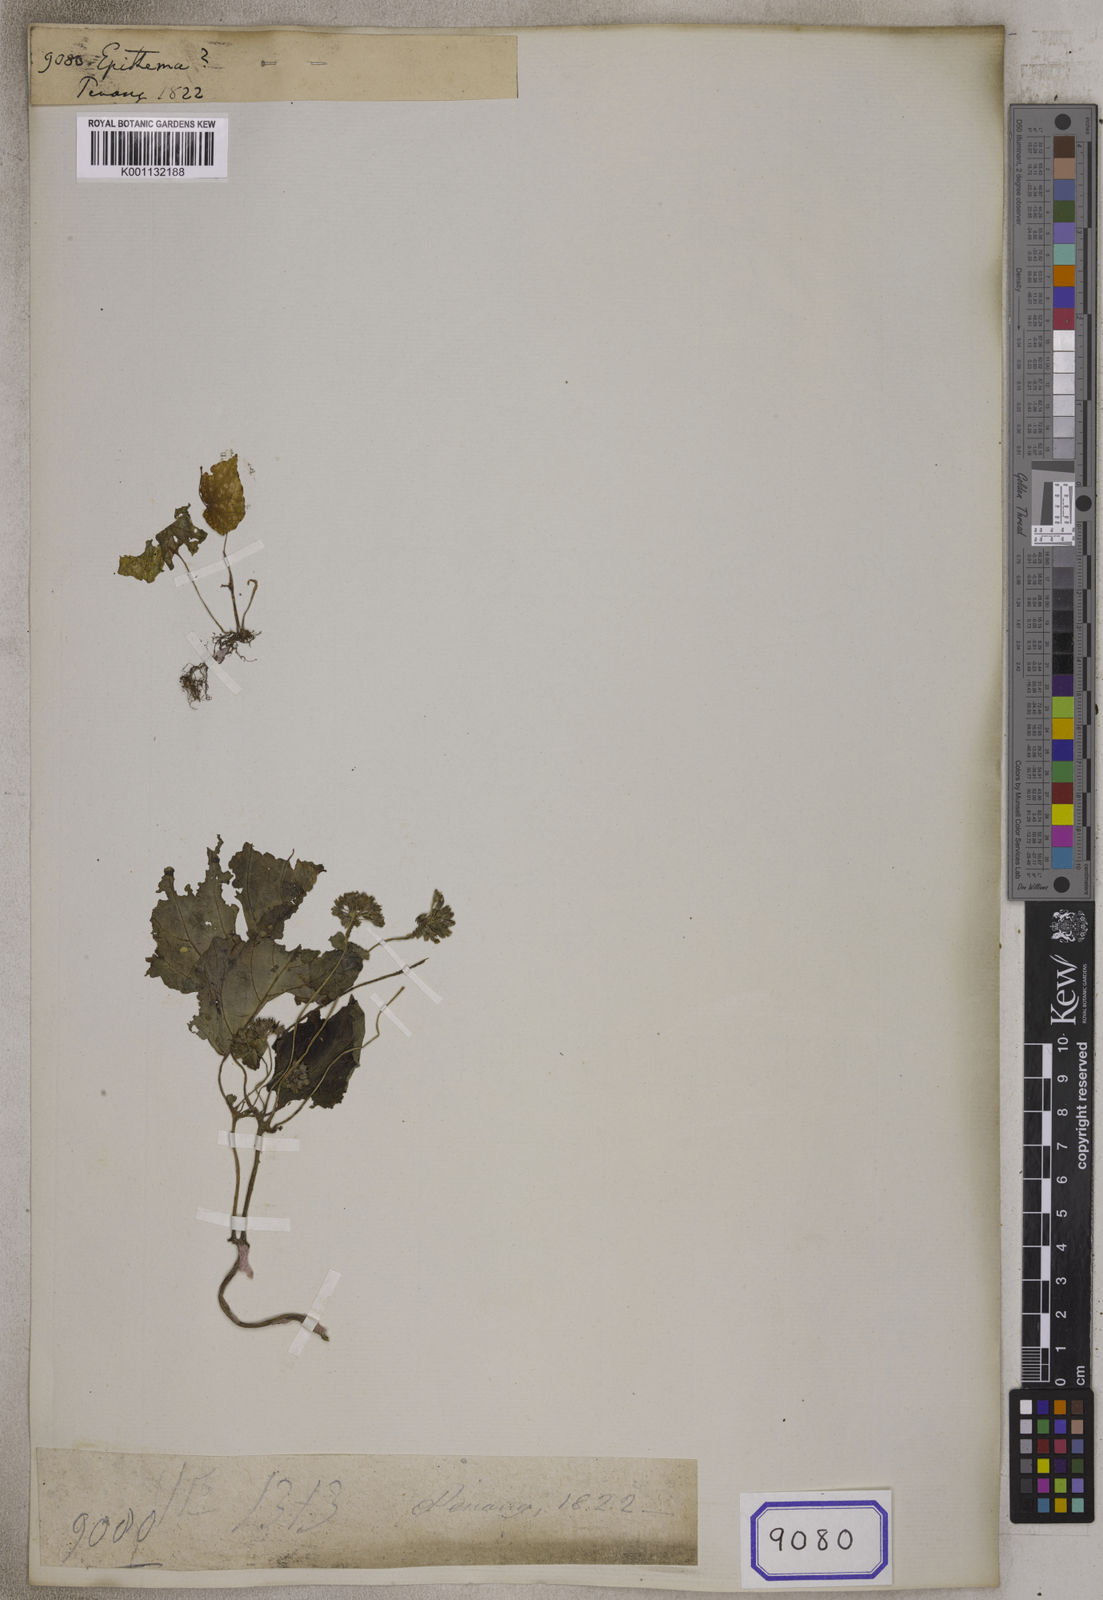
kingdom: Plantae
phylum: Tracheophyta
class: Magnoliopsida
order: Lamiales
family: Gesneriaceae
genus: Epithema
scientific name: Epithema
